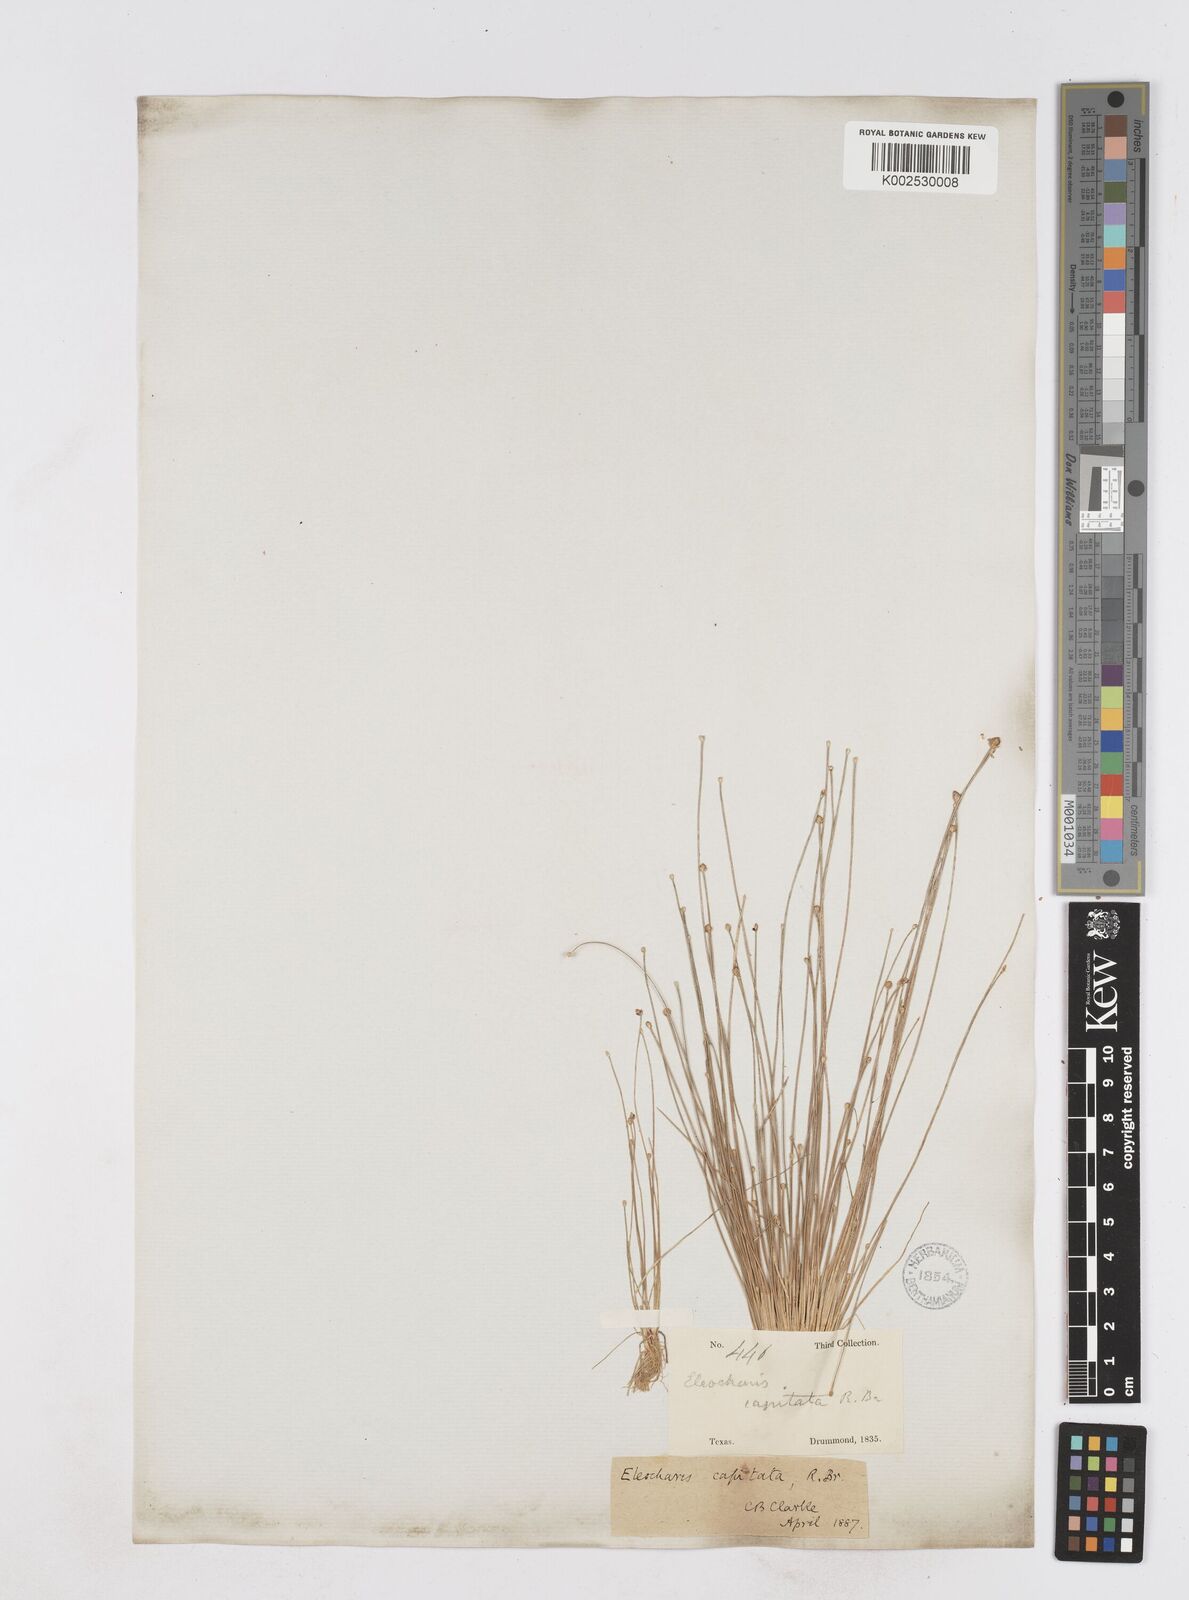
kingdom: Plantae
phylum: Tracheophyta
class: Liliopsida
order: Poales
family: Cyperaceae
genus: Eleocharis
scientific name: Eleocharis geniculata
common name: Canada spikesedge
